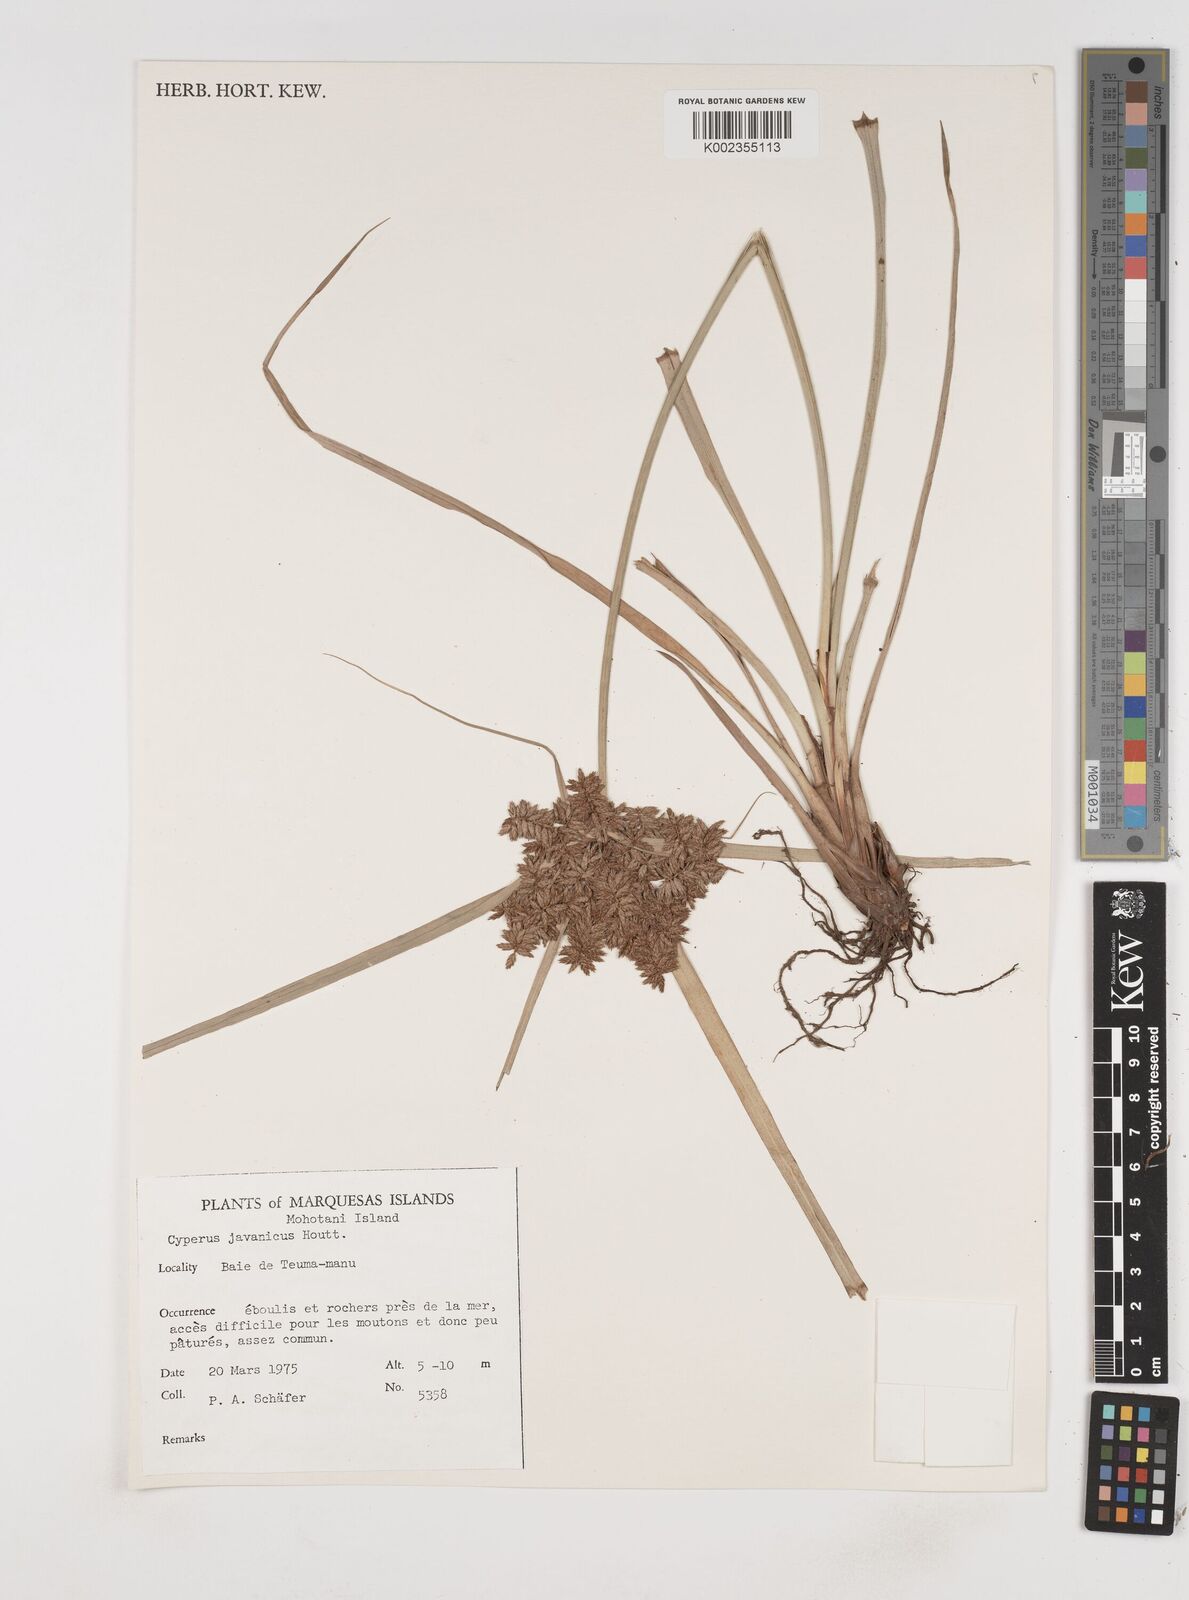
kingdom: Plantae
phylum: Tracheophyta
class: Liliopsida
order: Poales
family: Cyperaceae
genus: Cyperus
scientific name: Cyperus javanicus
